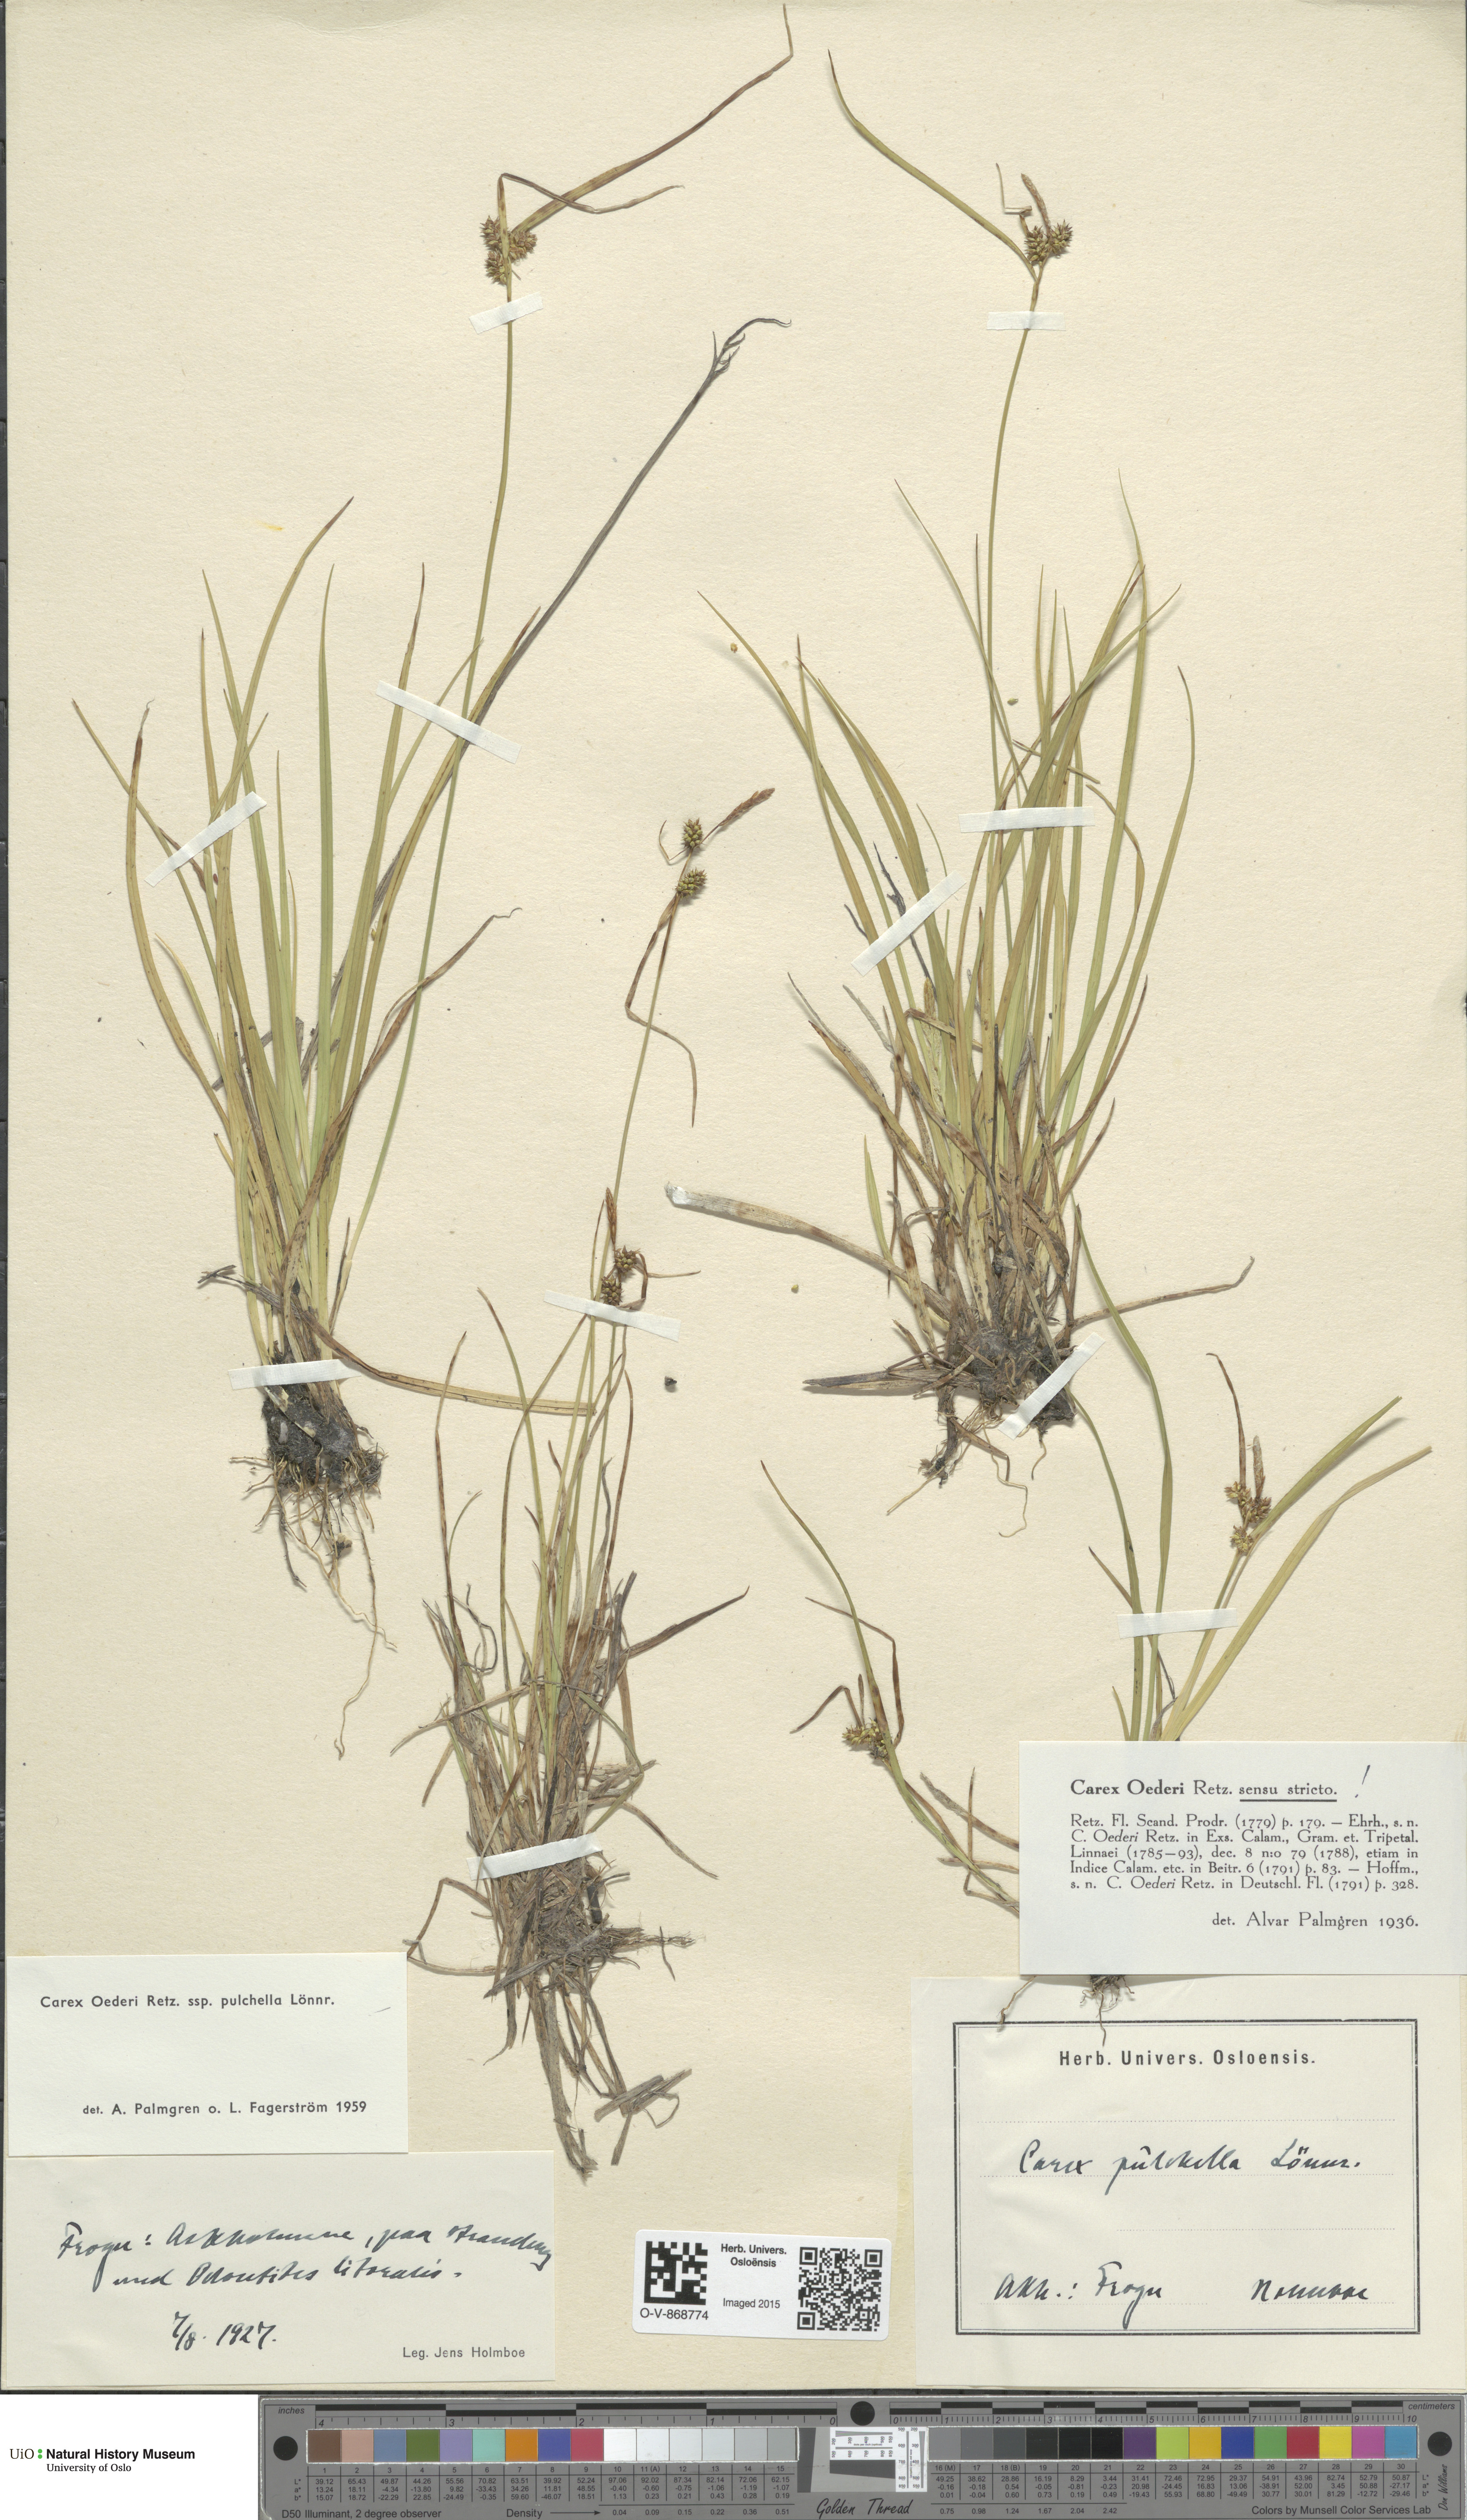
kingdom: Plantae
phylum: Tracheophyta
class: Liliopsida
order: Poales
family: Cyperaceae
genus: Carex
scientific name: Carex oederi
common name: Common & small-fruited yellow-sedge
